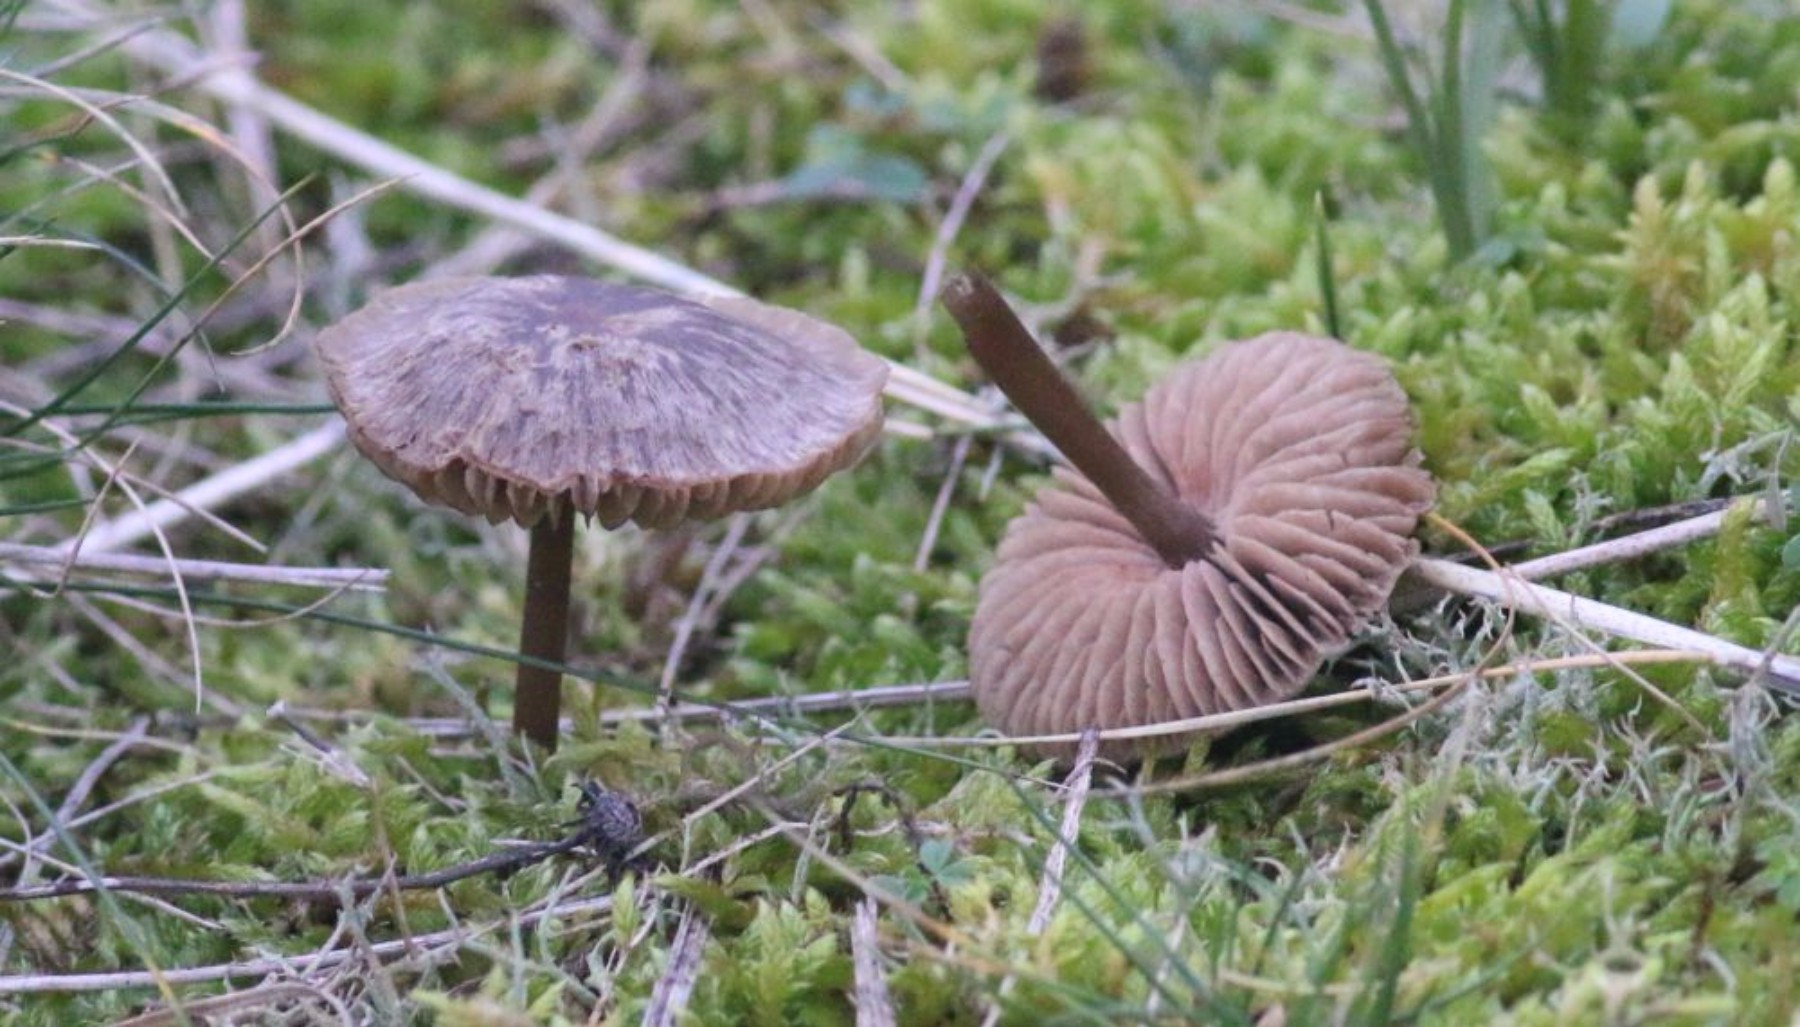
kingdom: Fungi
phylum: Basidiomycota
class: Agaricomycetes
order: Agaricales
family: Entolomataceae
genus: Entoloma
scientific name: Entoloma
